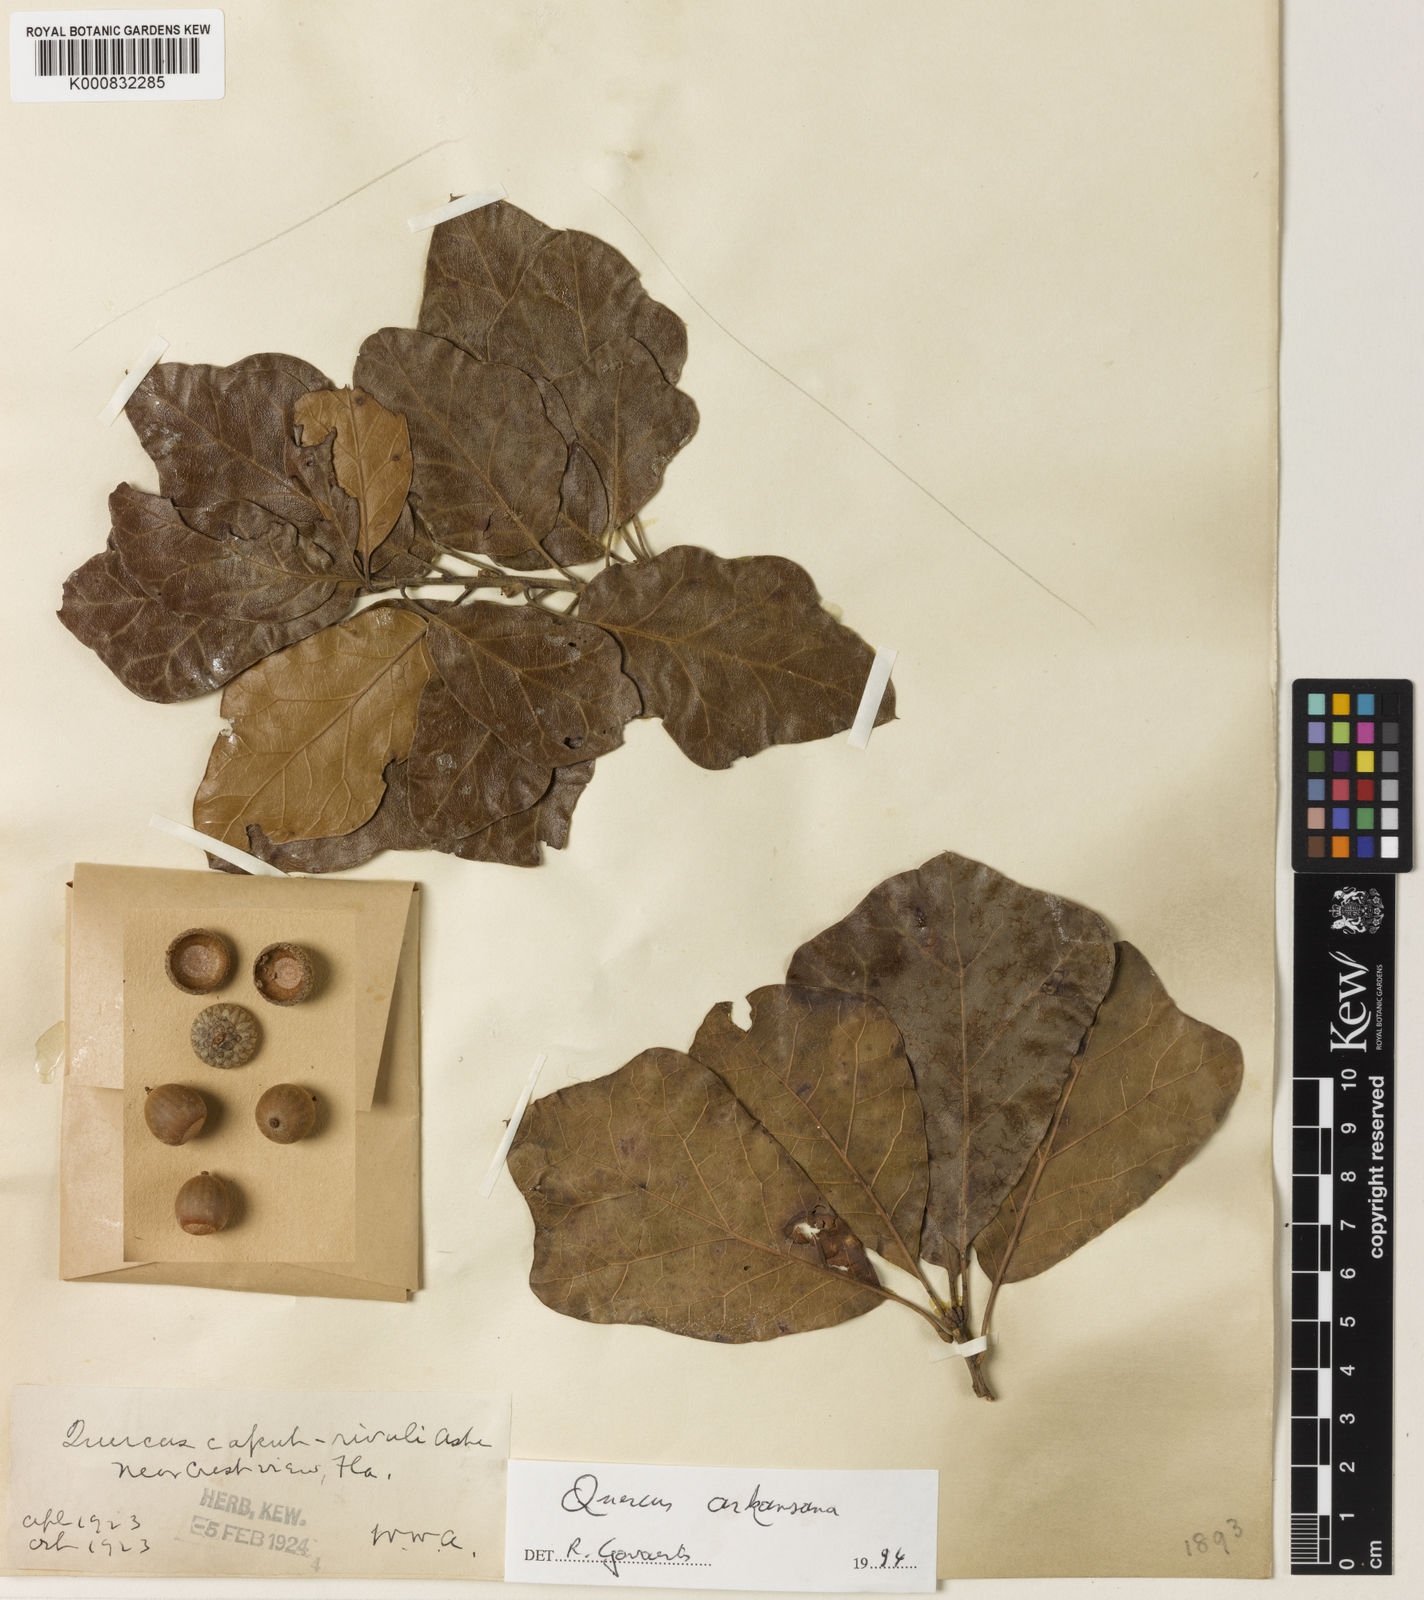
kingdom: Plantae
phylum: Tracheophyta
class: Magnoliopsida
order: Fagales
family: Fagaceae
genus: Quercus
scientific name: Quercus arkansana
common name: Arkansas oak
